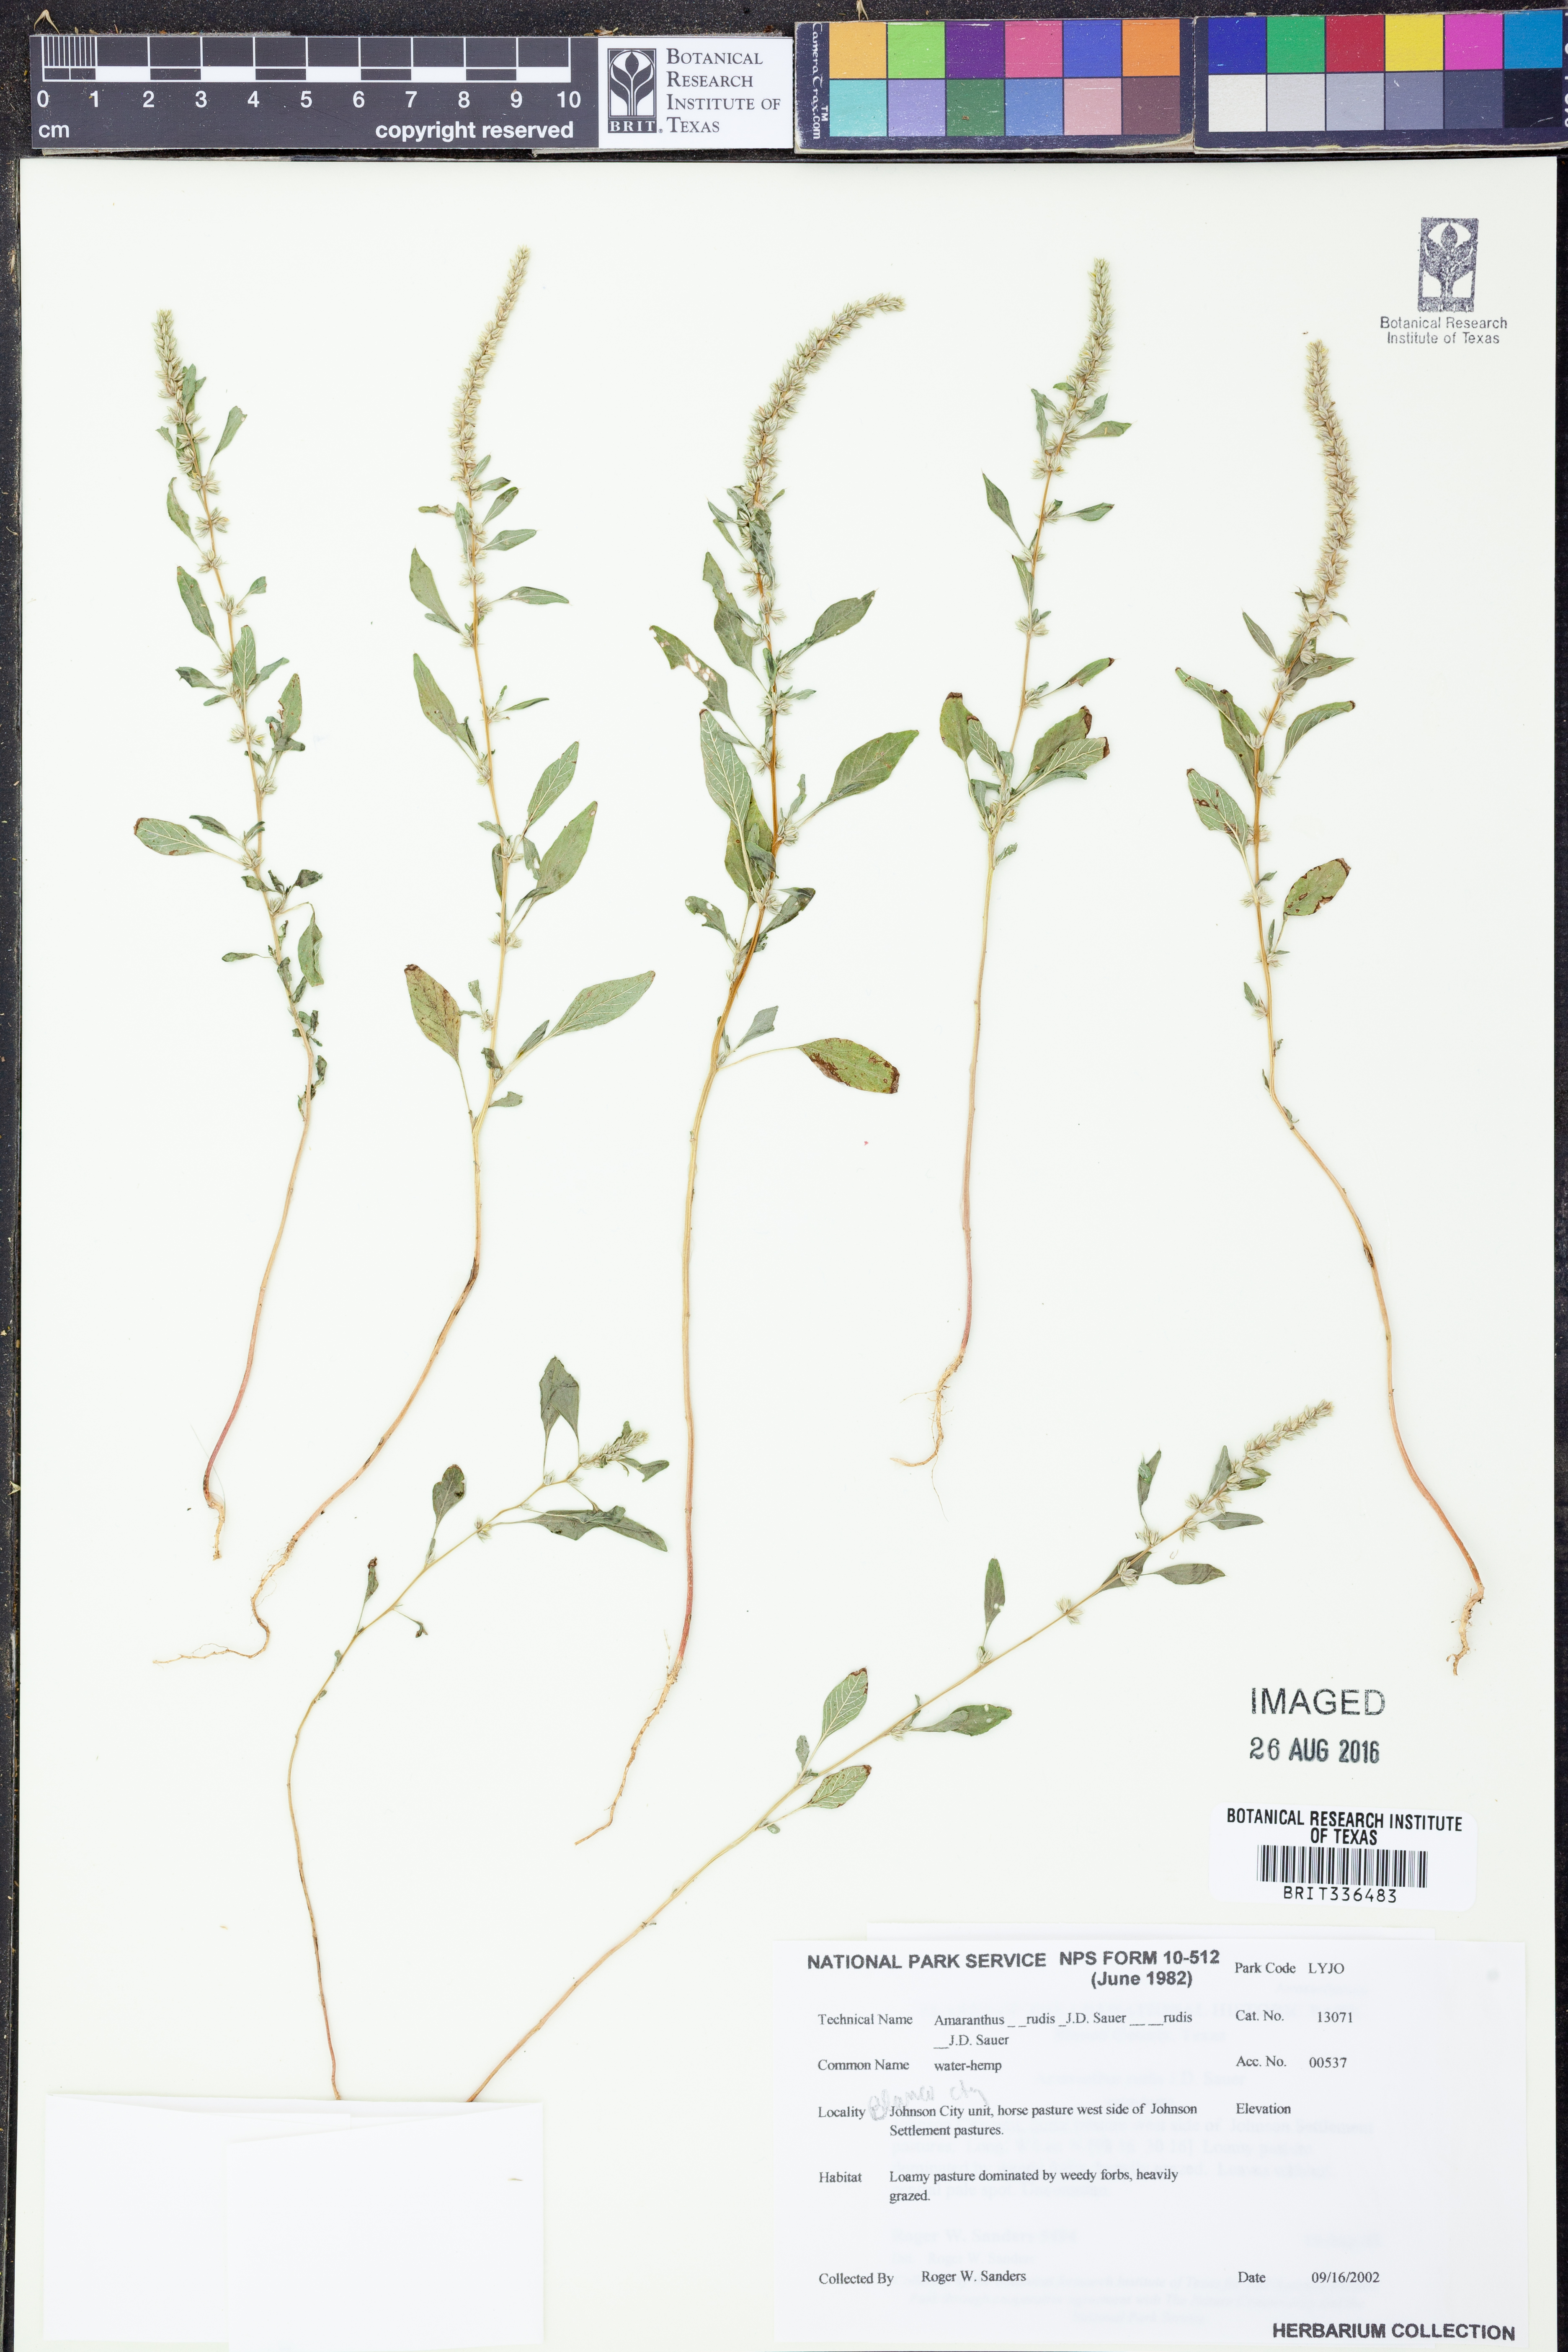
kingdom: Plantae
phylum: Tracheophyta
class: Magnoliopsida
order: Caryophyllales
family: Amaranthaceae
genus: Amaranthus
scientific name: Amaranthus tuberculatus
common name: Rough-fruit amaranth
